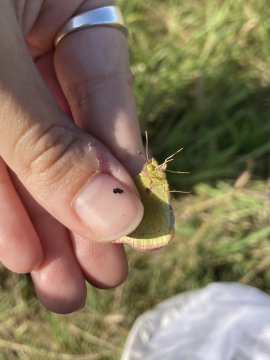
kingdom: Animalia
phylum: Arthropoda
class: Insecta
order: Lepidoptera
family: Pieridae
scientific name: Pieridae
